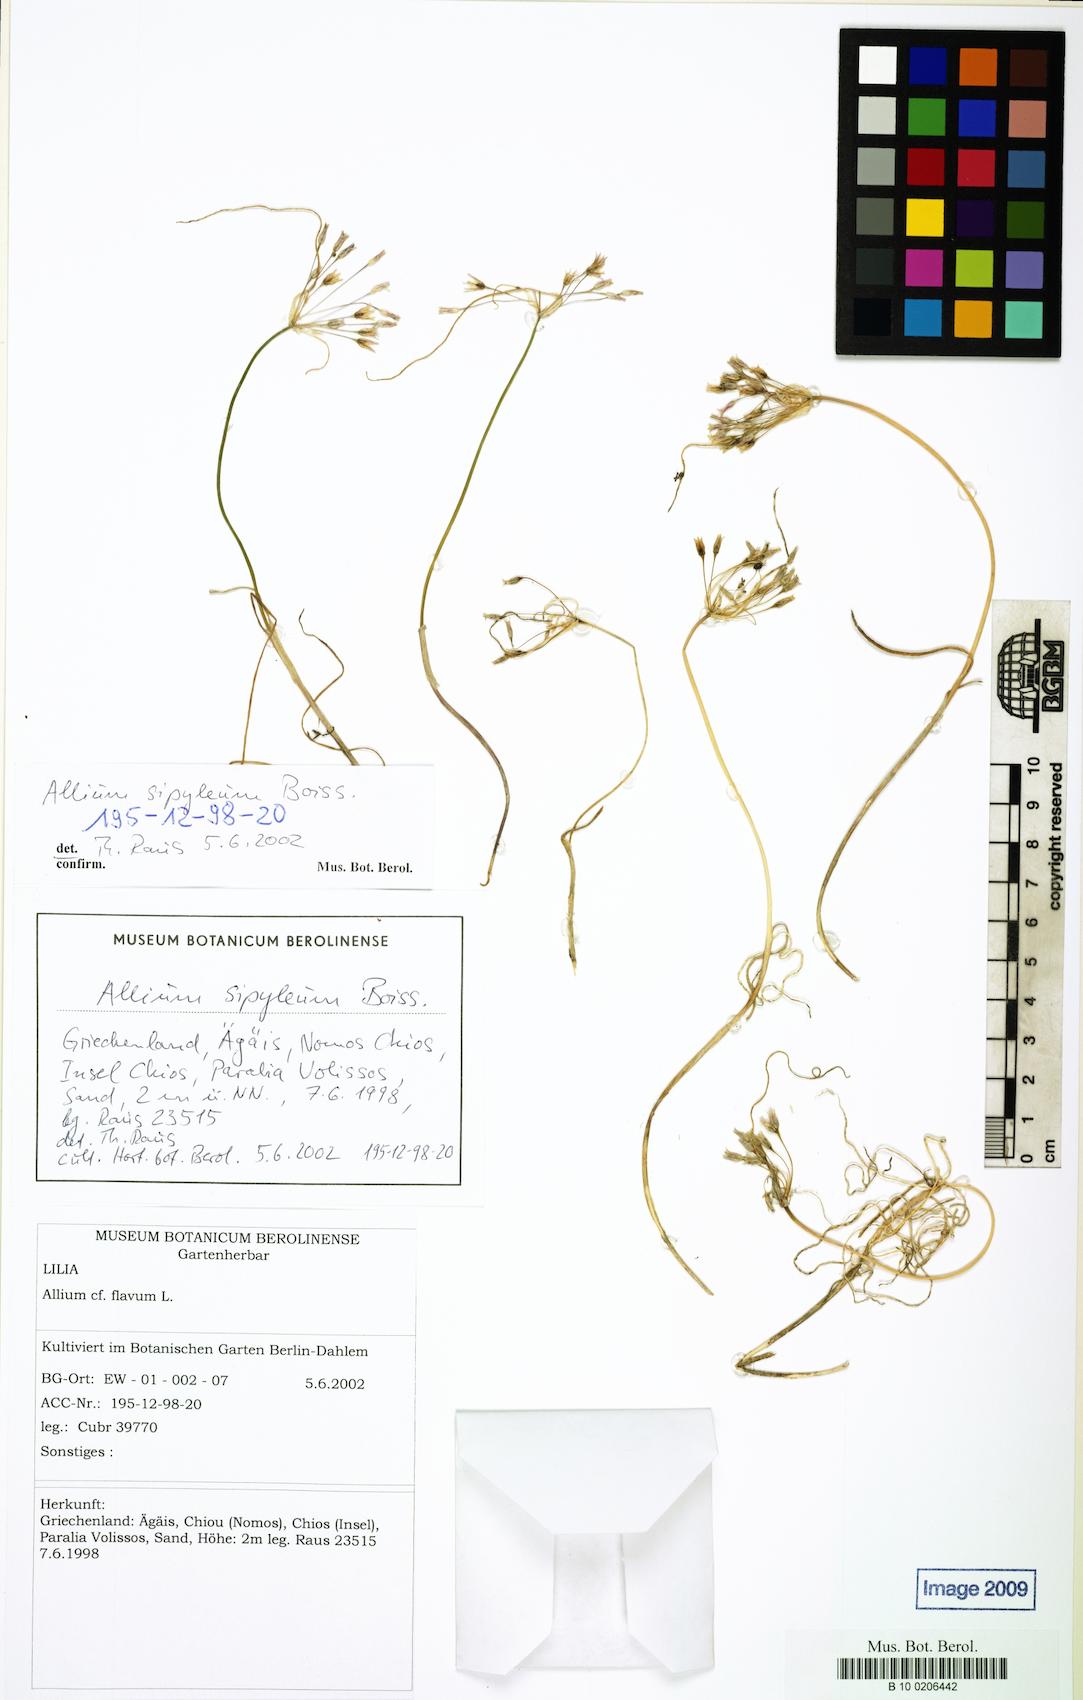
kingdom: Plantae
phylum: Tracheophyta
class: Liliopsida
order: Asparagales
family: Amaryllidaceae
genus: Allium
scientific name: Allium sipyleum
